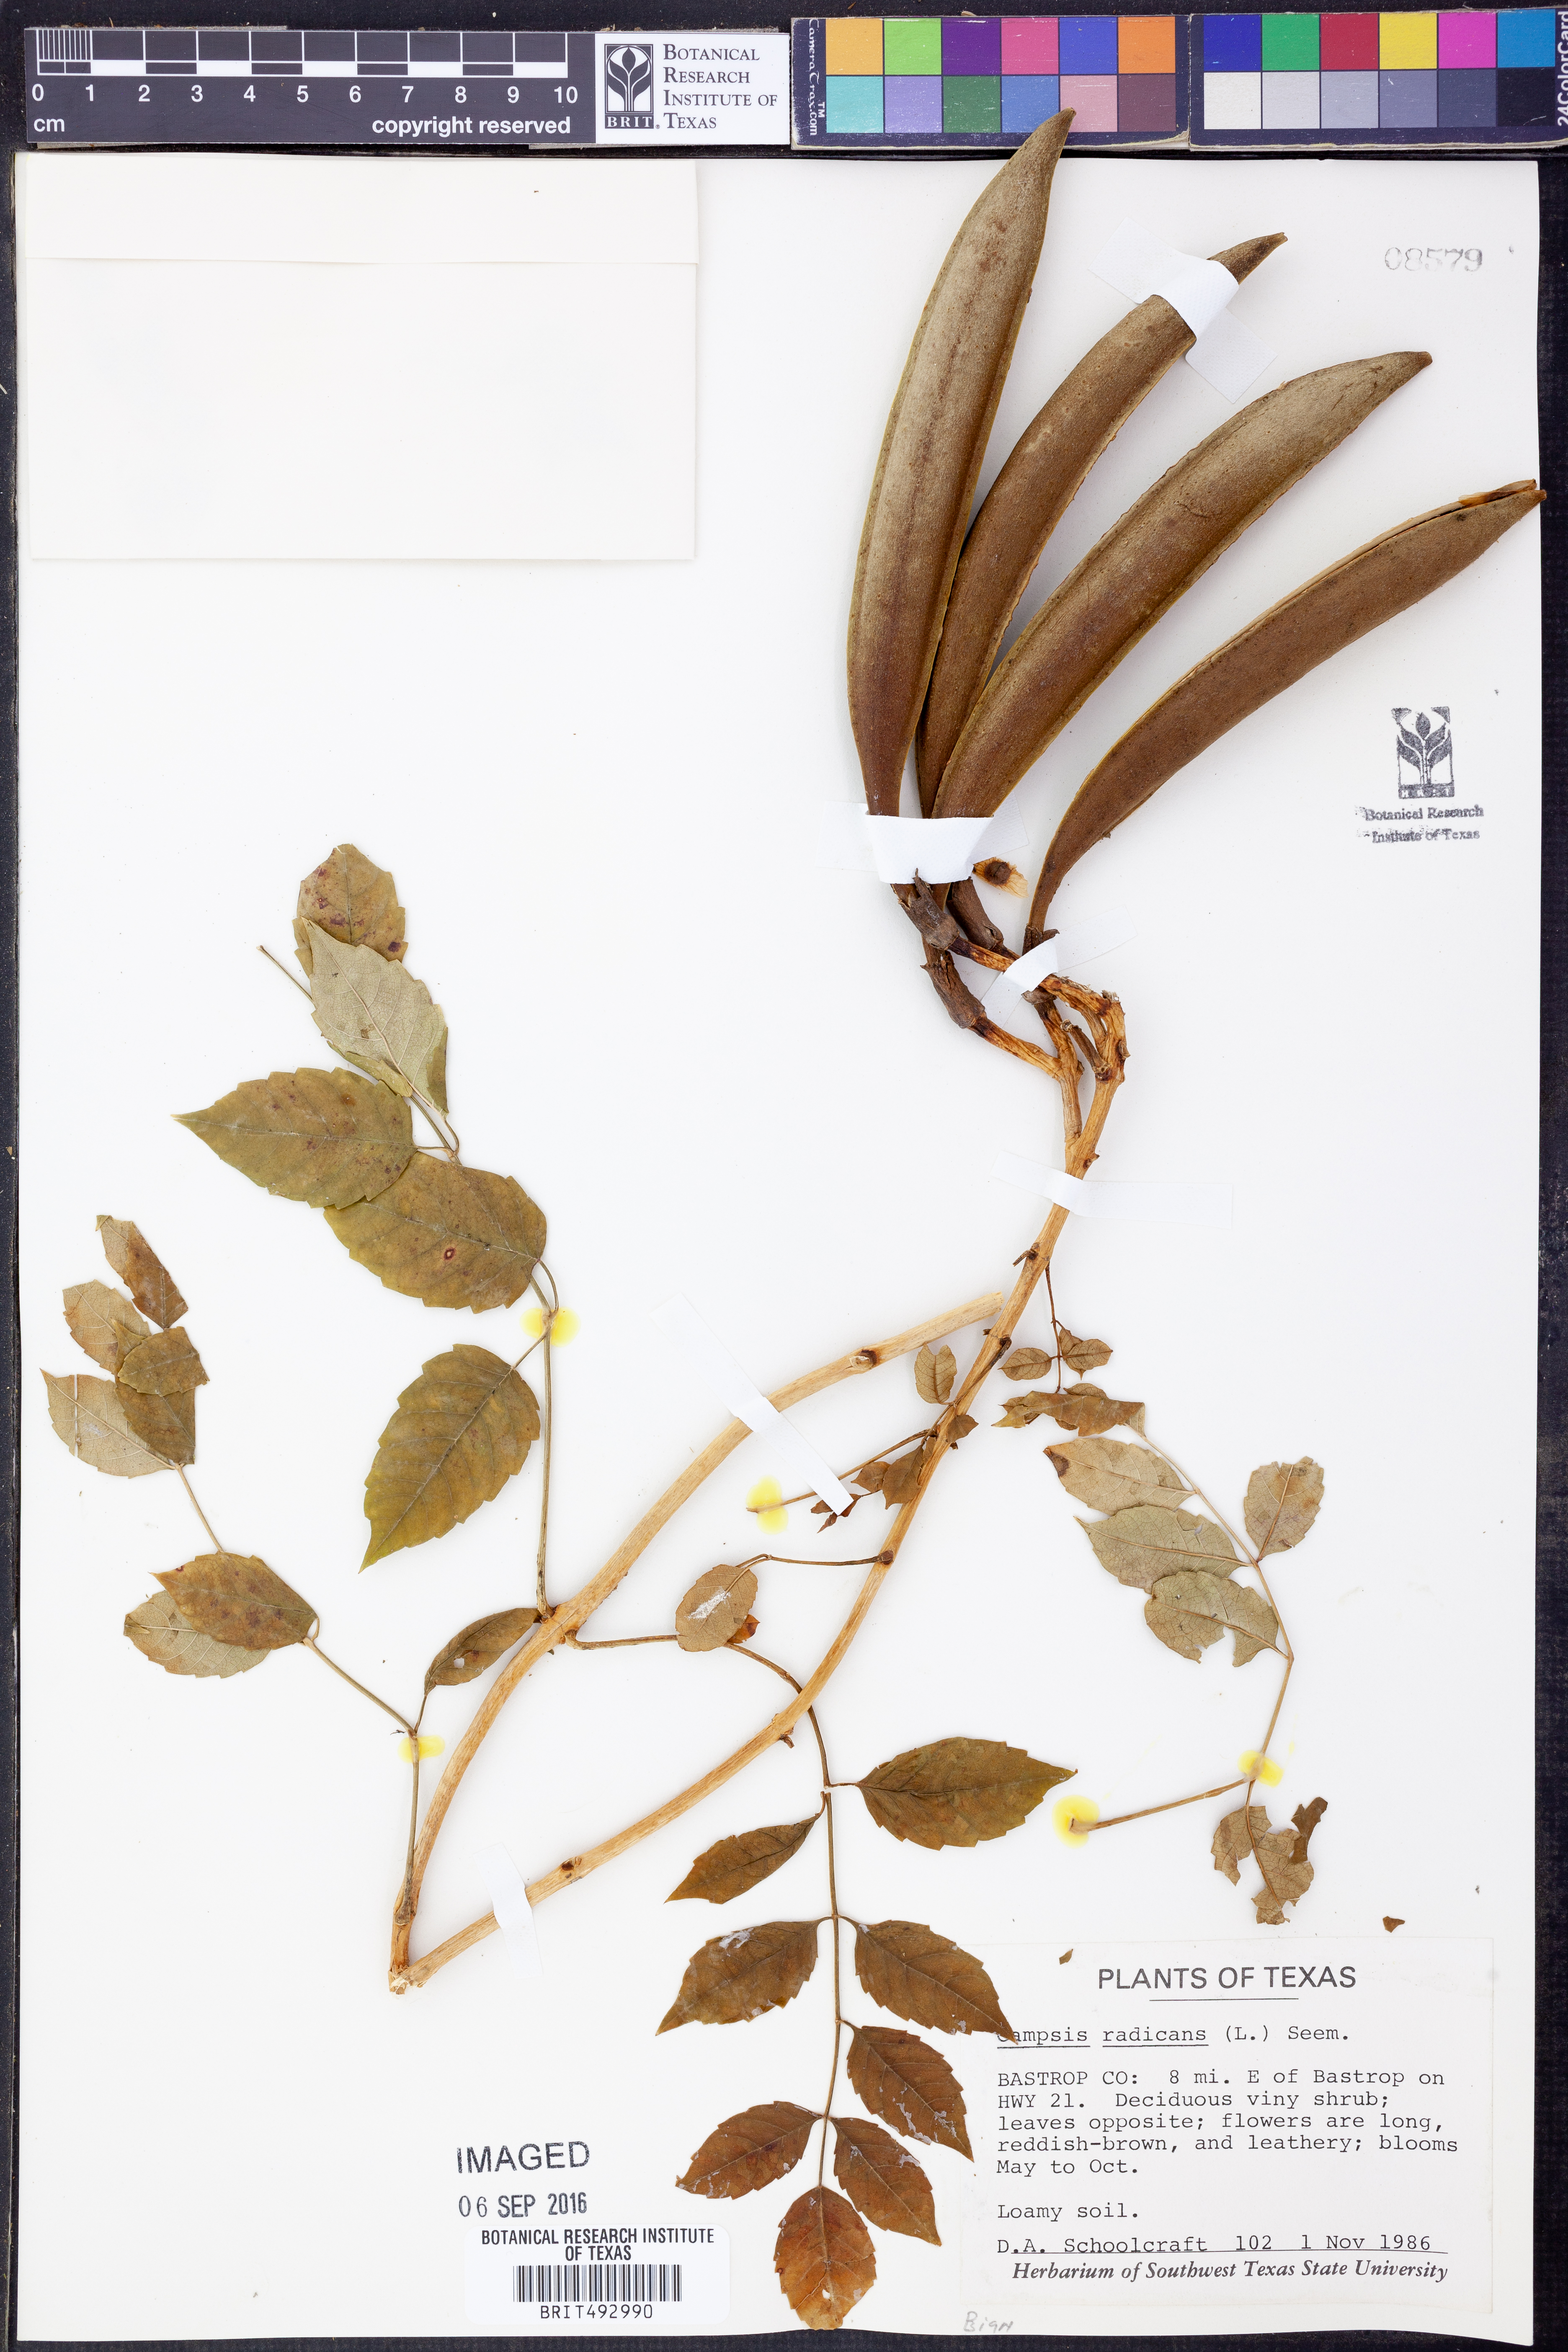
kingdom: Plantae
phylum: Tracheophyta
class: Magnoliopsida
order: Lamiales
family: Bignoniaceae
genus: Campsis
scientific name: Campsis radicans
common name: Trumpet-creeper
